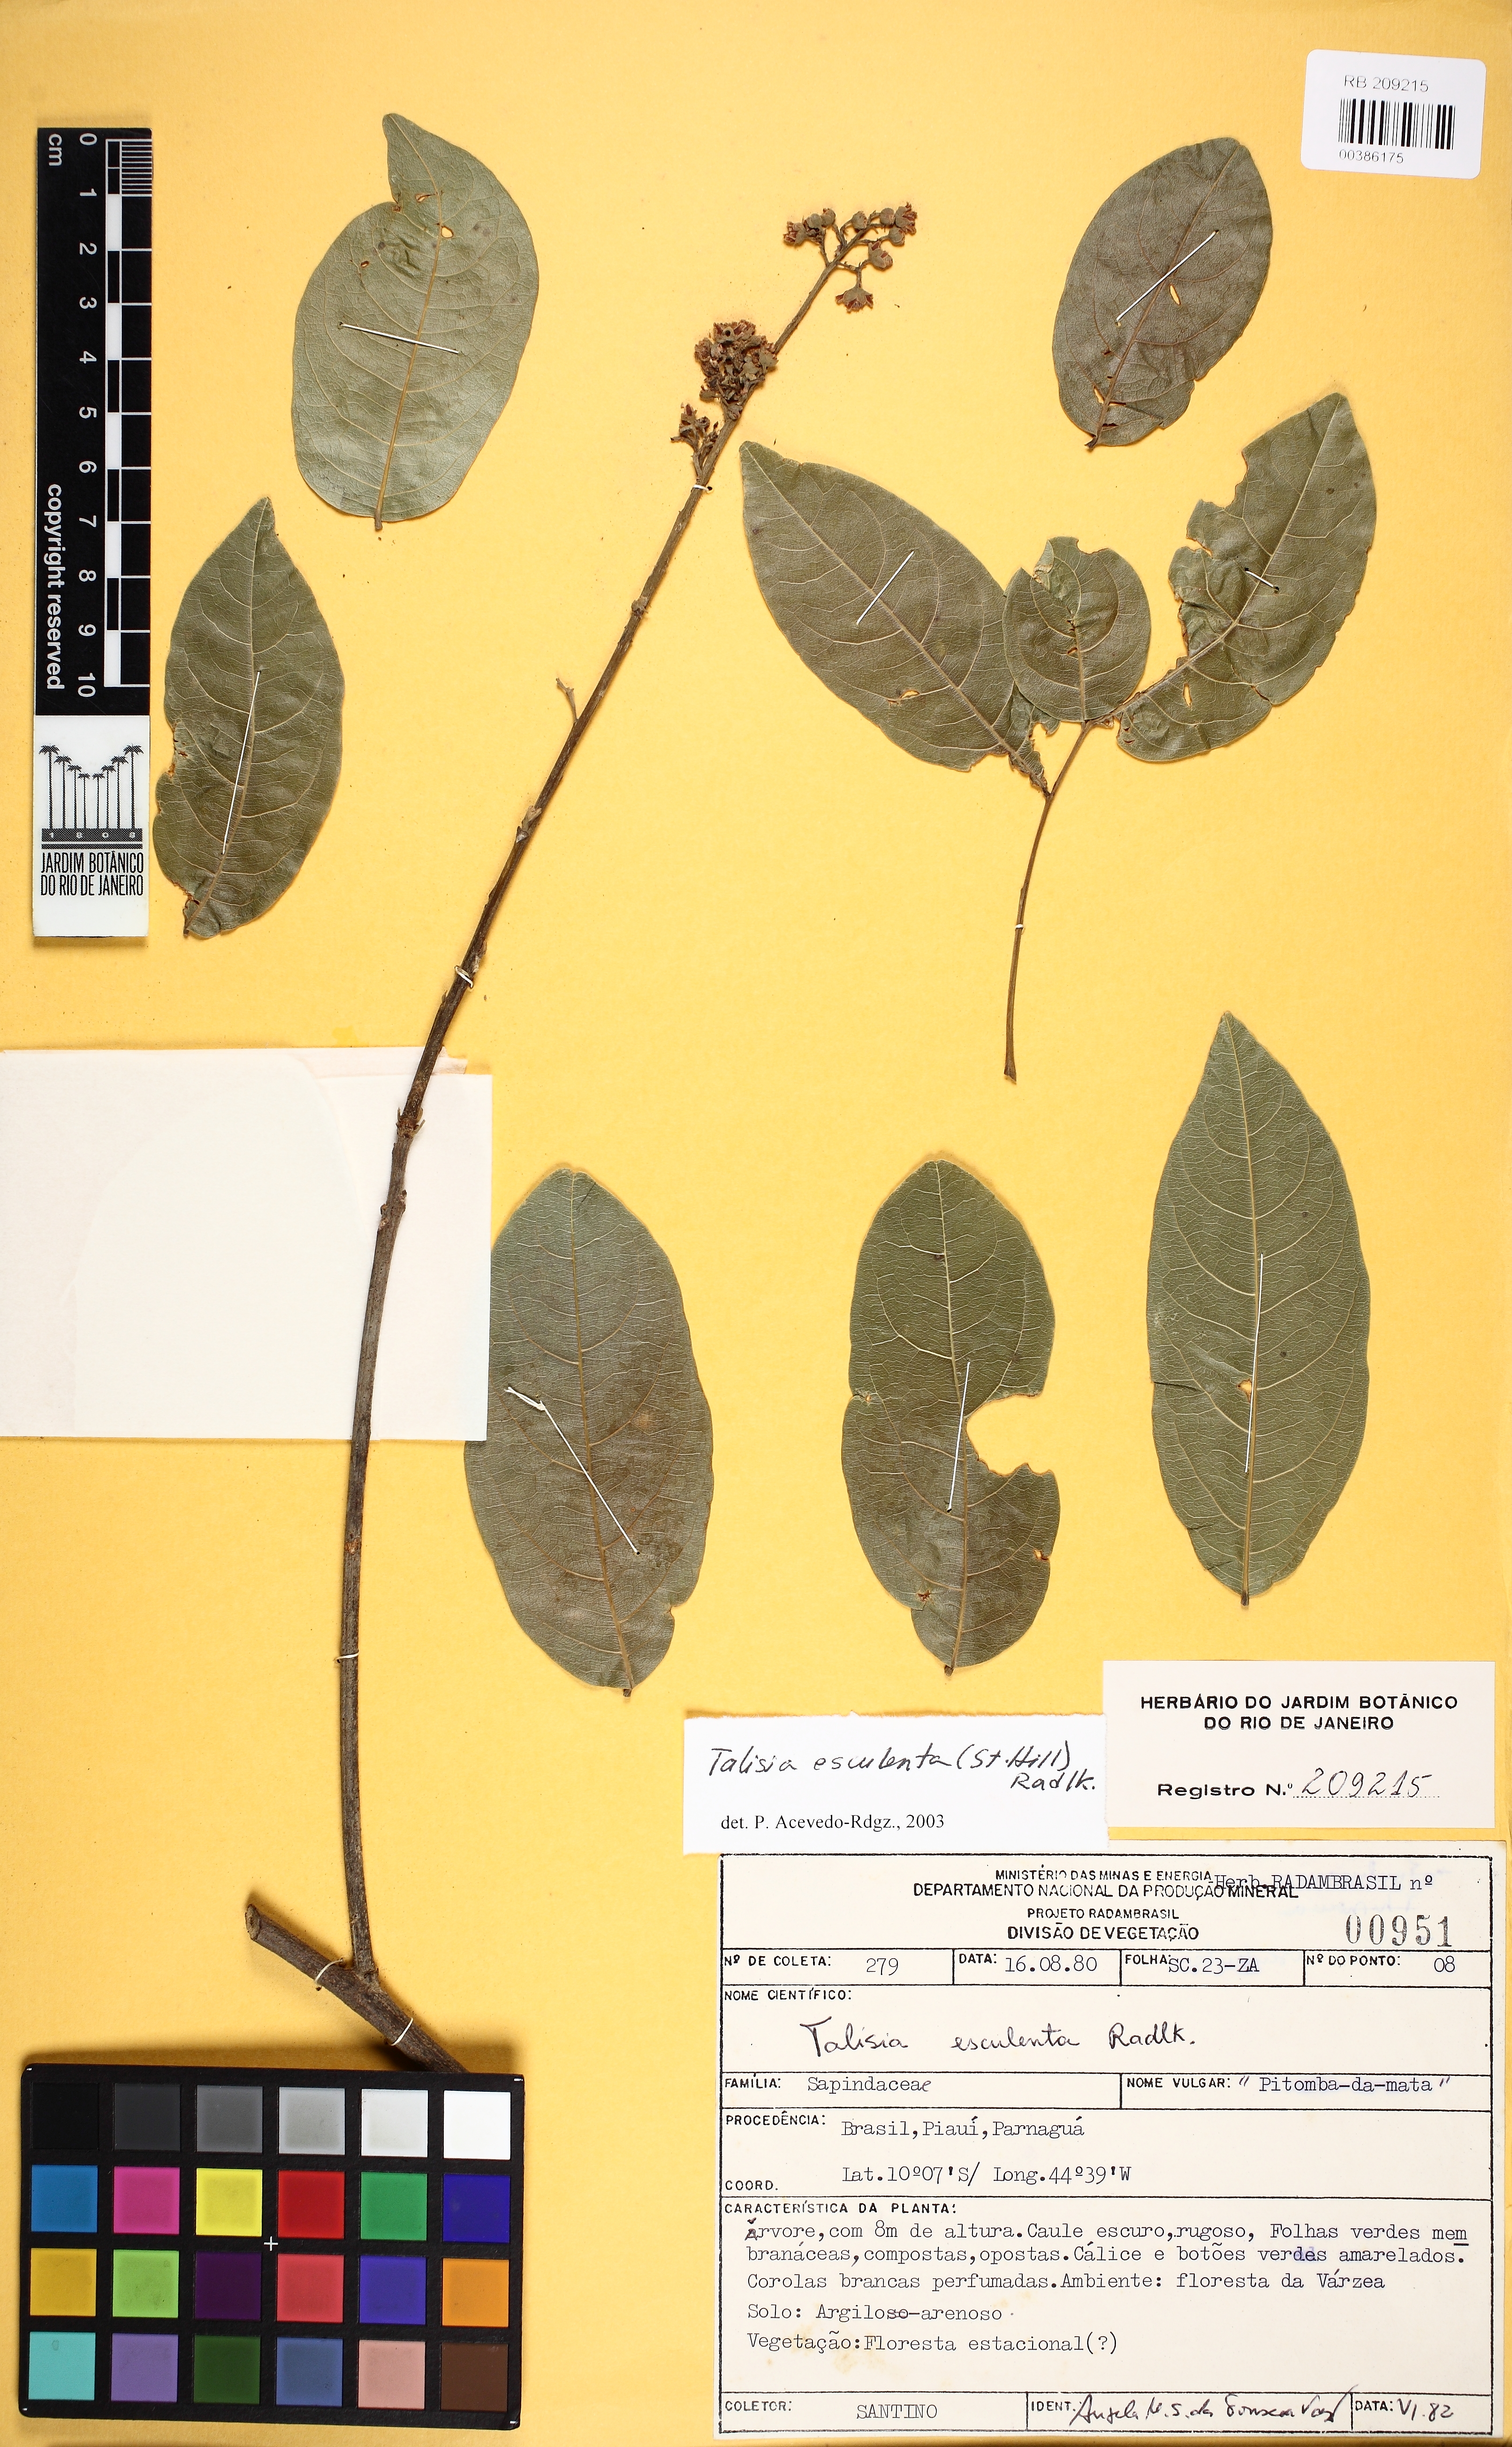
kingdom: Plantae
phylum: Tracheophyta
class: Magnoliopsida
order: Sapindales
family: Sapindaceae
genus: Talisia
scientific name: Talisia esculenta
